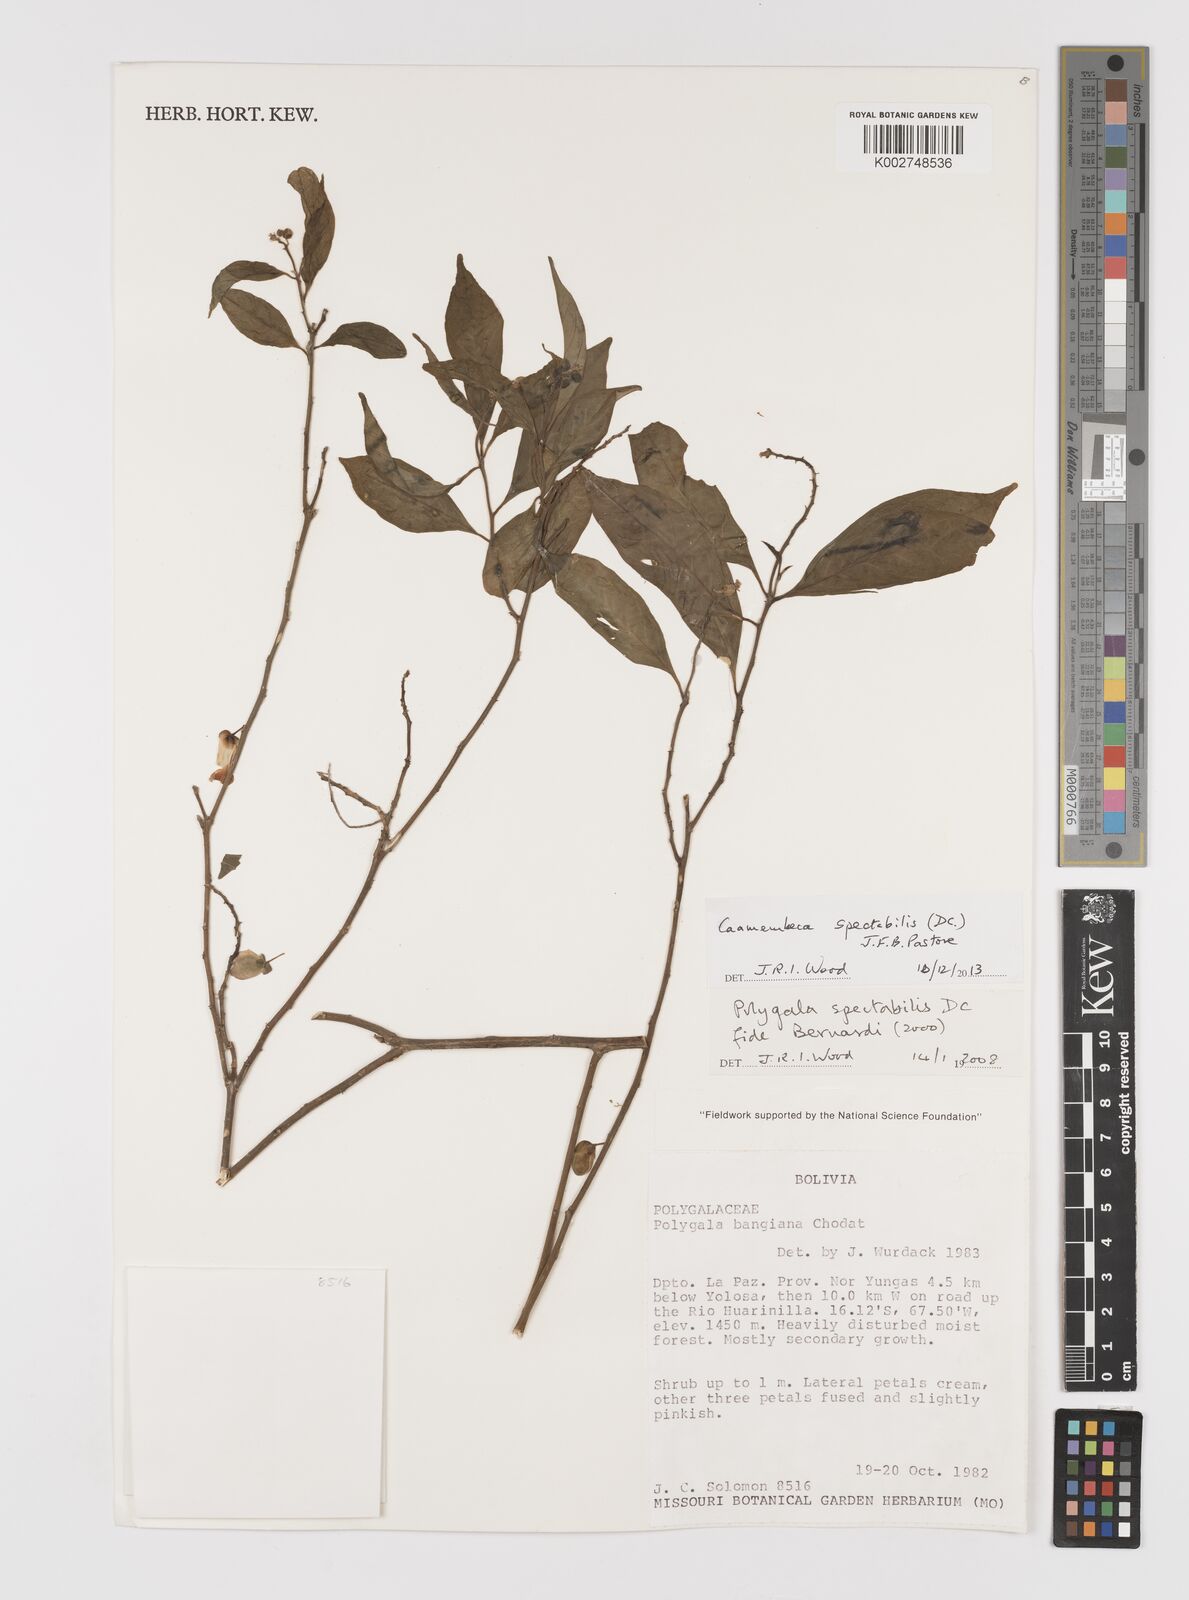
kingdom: Plantae
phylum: Tracheophyta
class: Magnoliopsida
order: Fabales
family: Polygalaceae
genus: Caamembeca
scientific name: Caamembeca spectabilis
